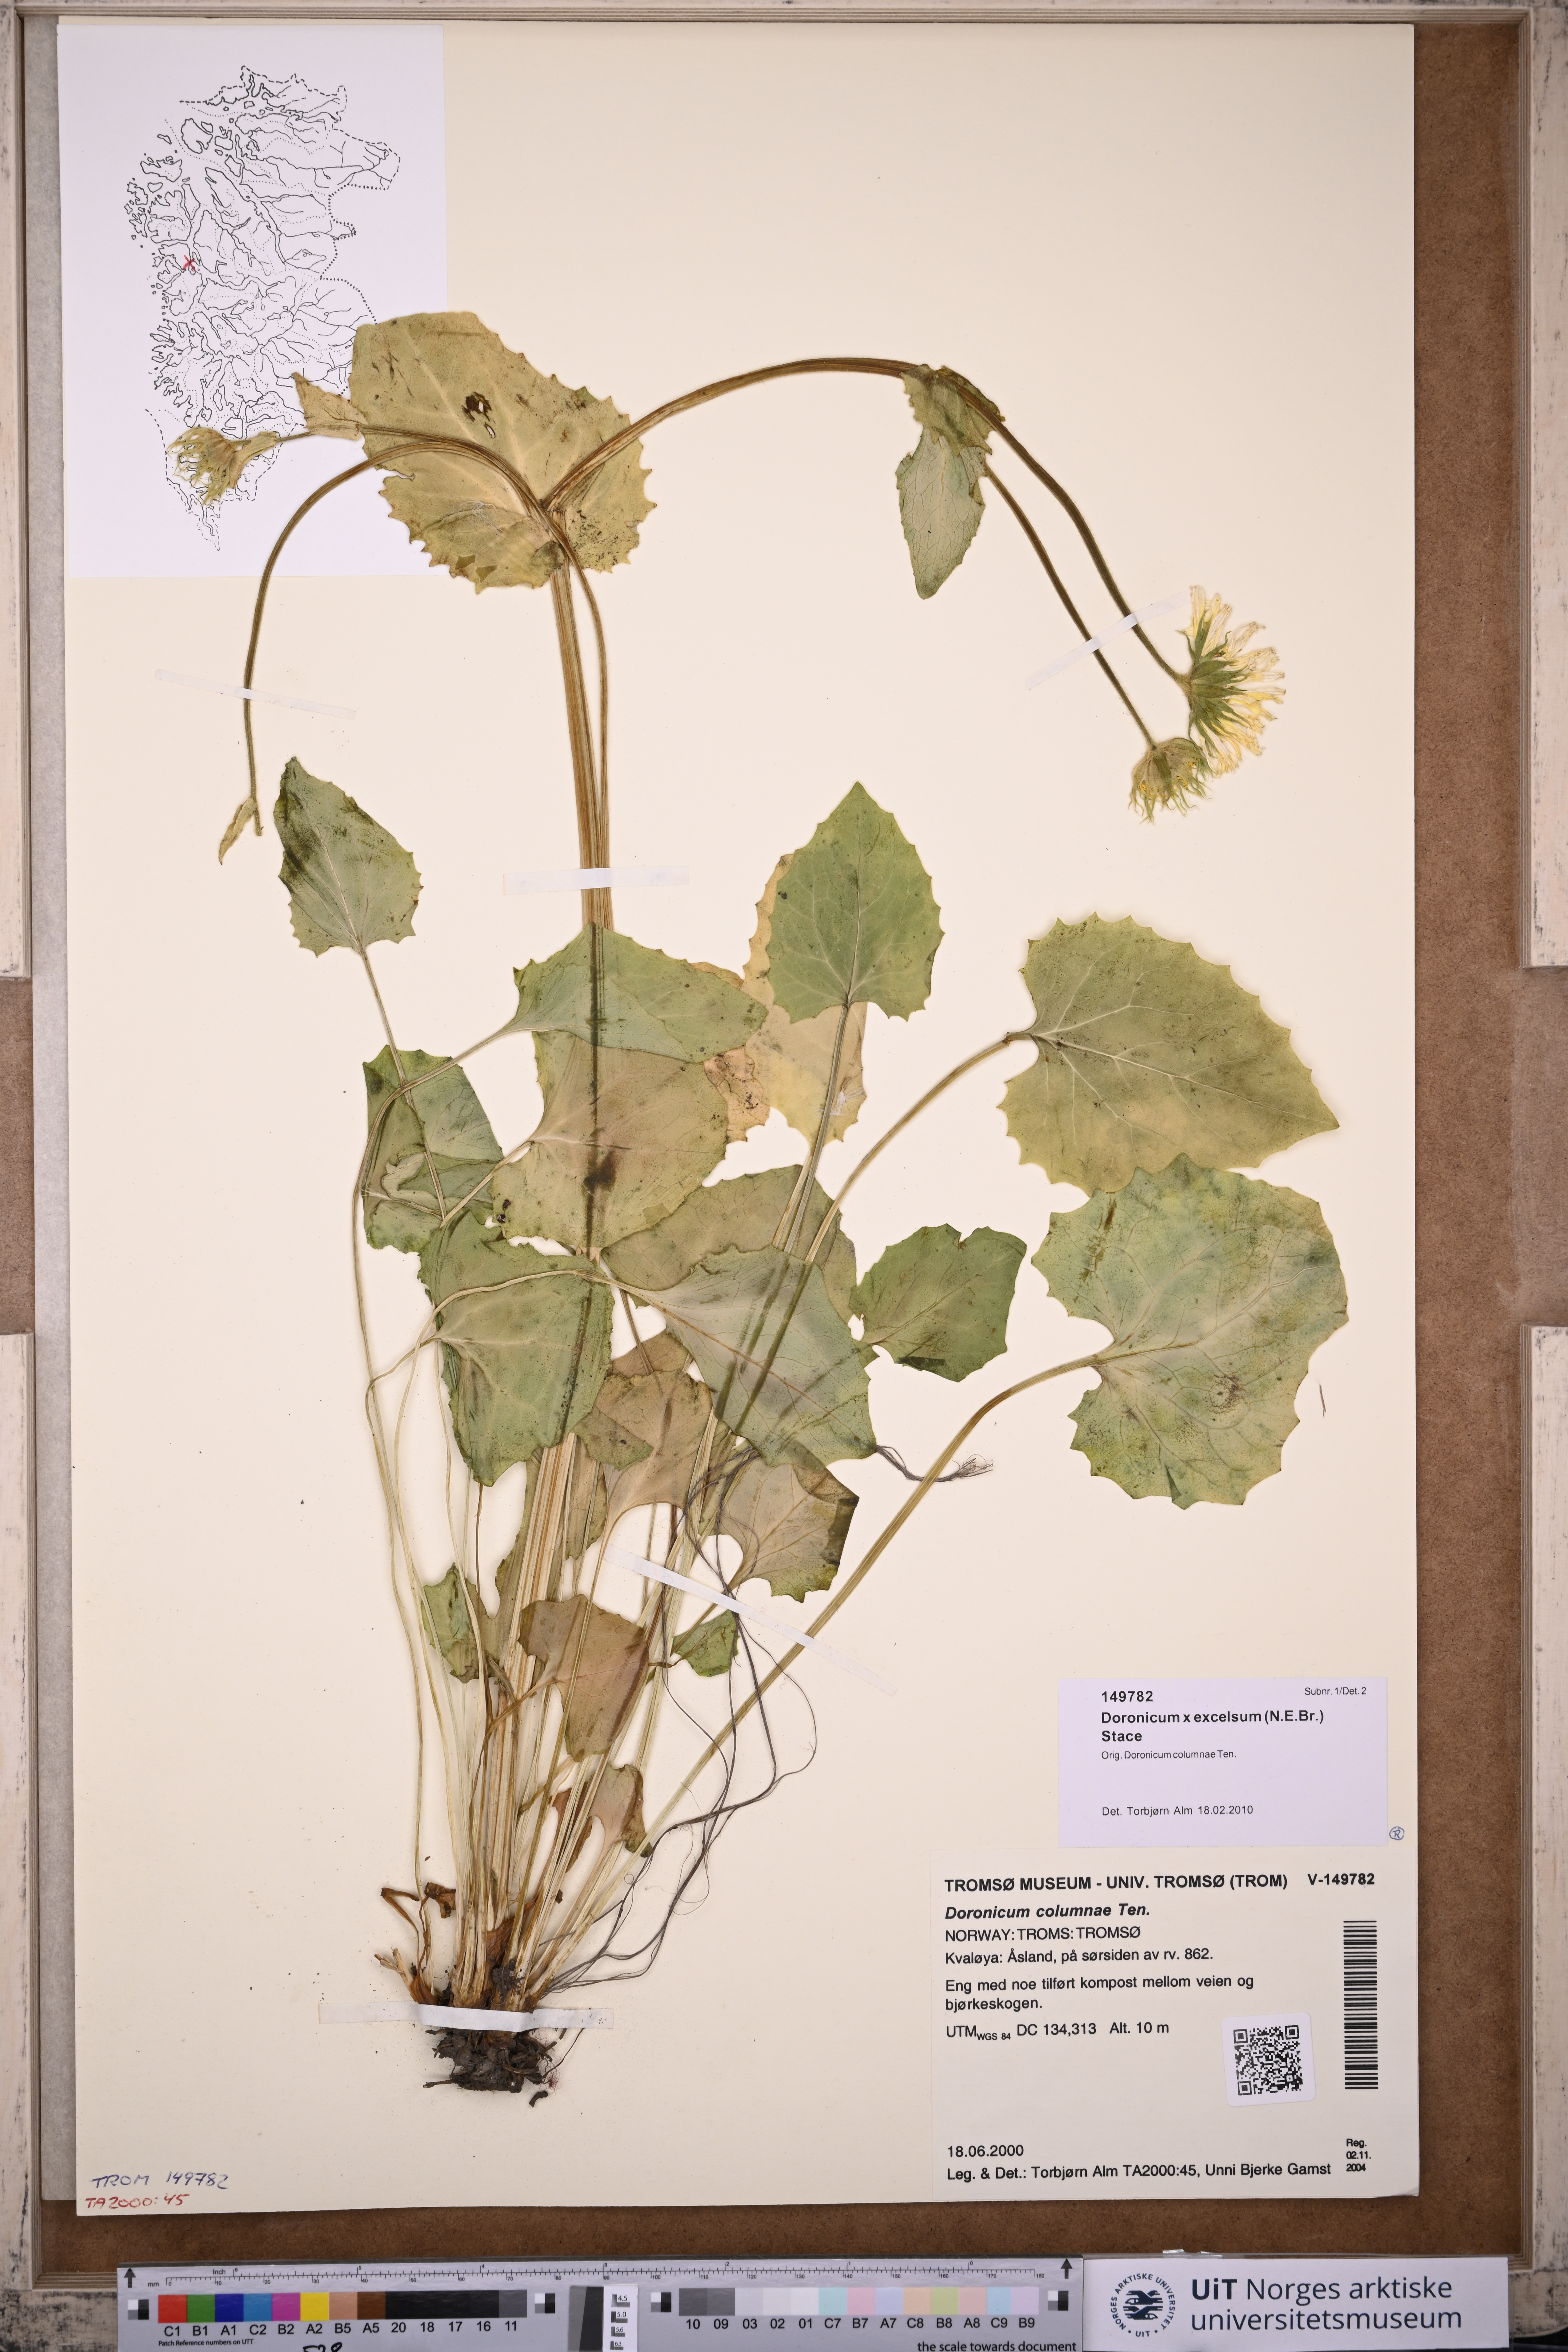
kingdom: Plantae
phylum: Tracheophyta
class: Magnoliopsida
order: Asterales
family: Asteraceae
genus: Doronicum
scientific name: Doronicum excelsum
